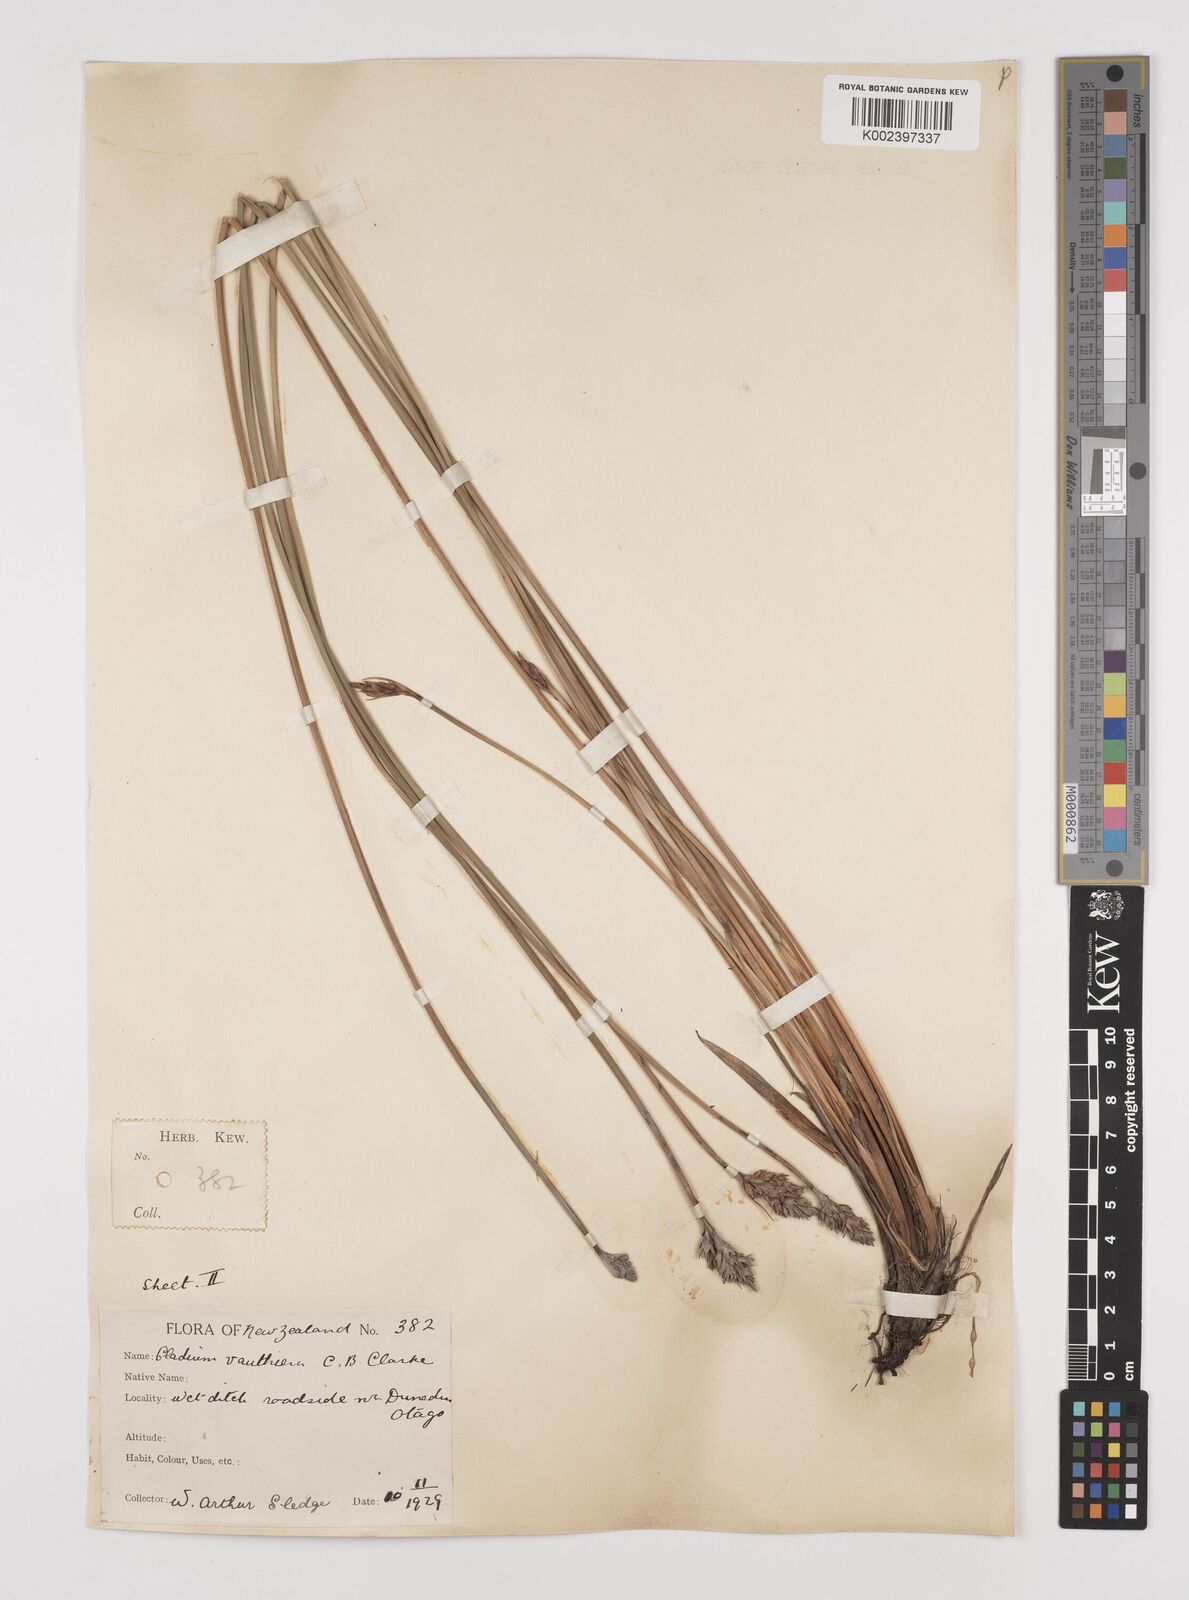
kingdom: Plantae
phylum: Tracheophyta
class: Liliopsida
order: Poales
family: Cyperaceae
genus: Lepidosperma
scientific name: Lepidosperma australe
